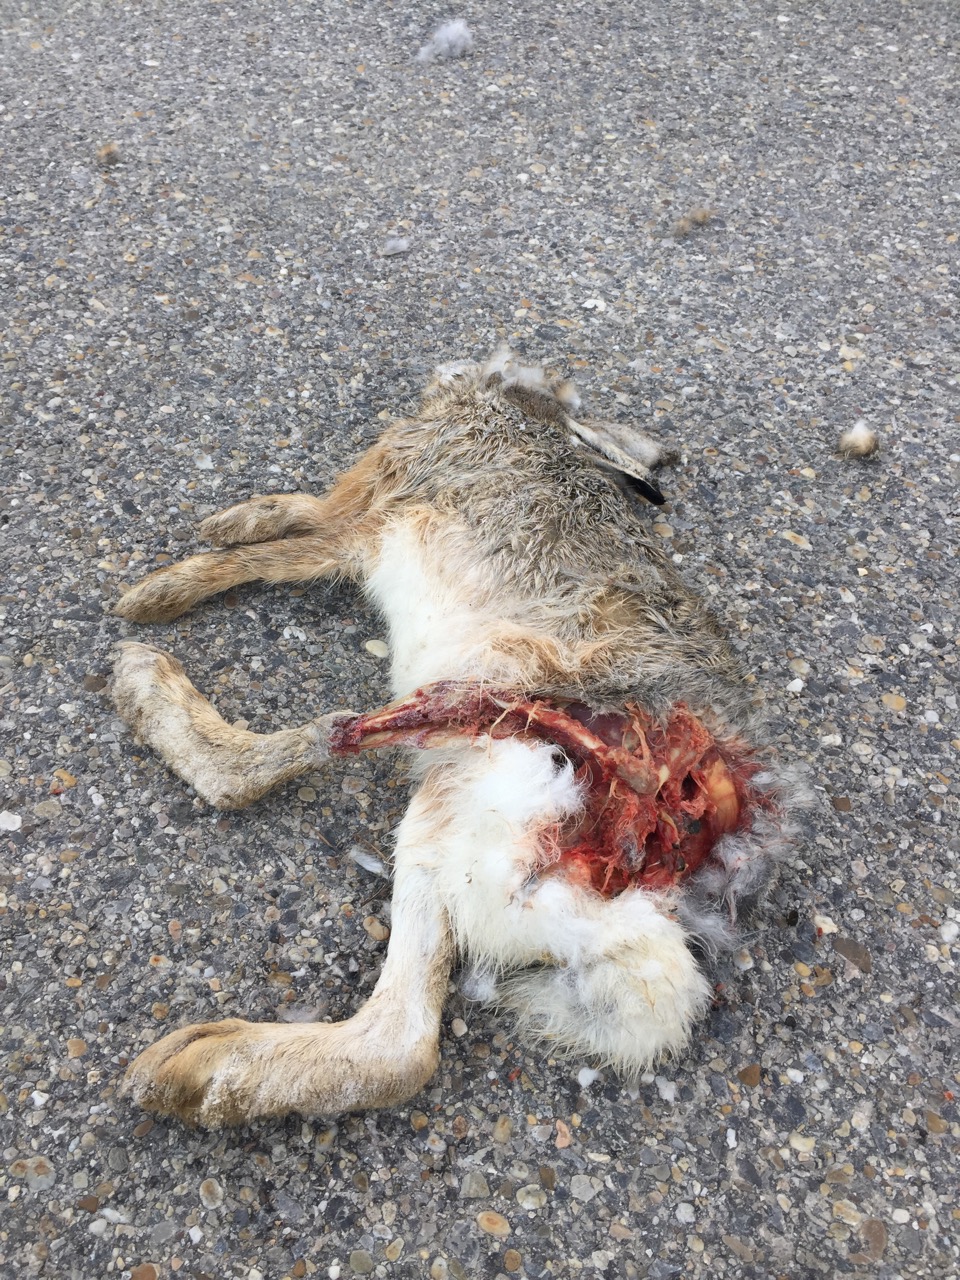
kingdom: Animalia
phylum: Chordata
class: Mammalia
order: Lagomorpha
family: Leporidae
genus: Lepus
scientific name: Lepus europaeus
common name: European hare
